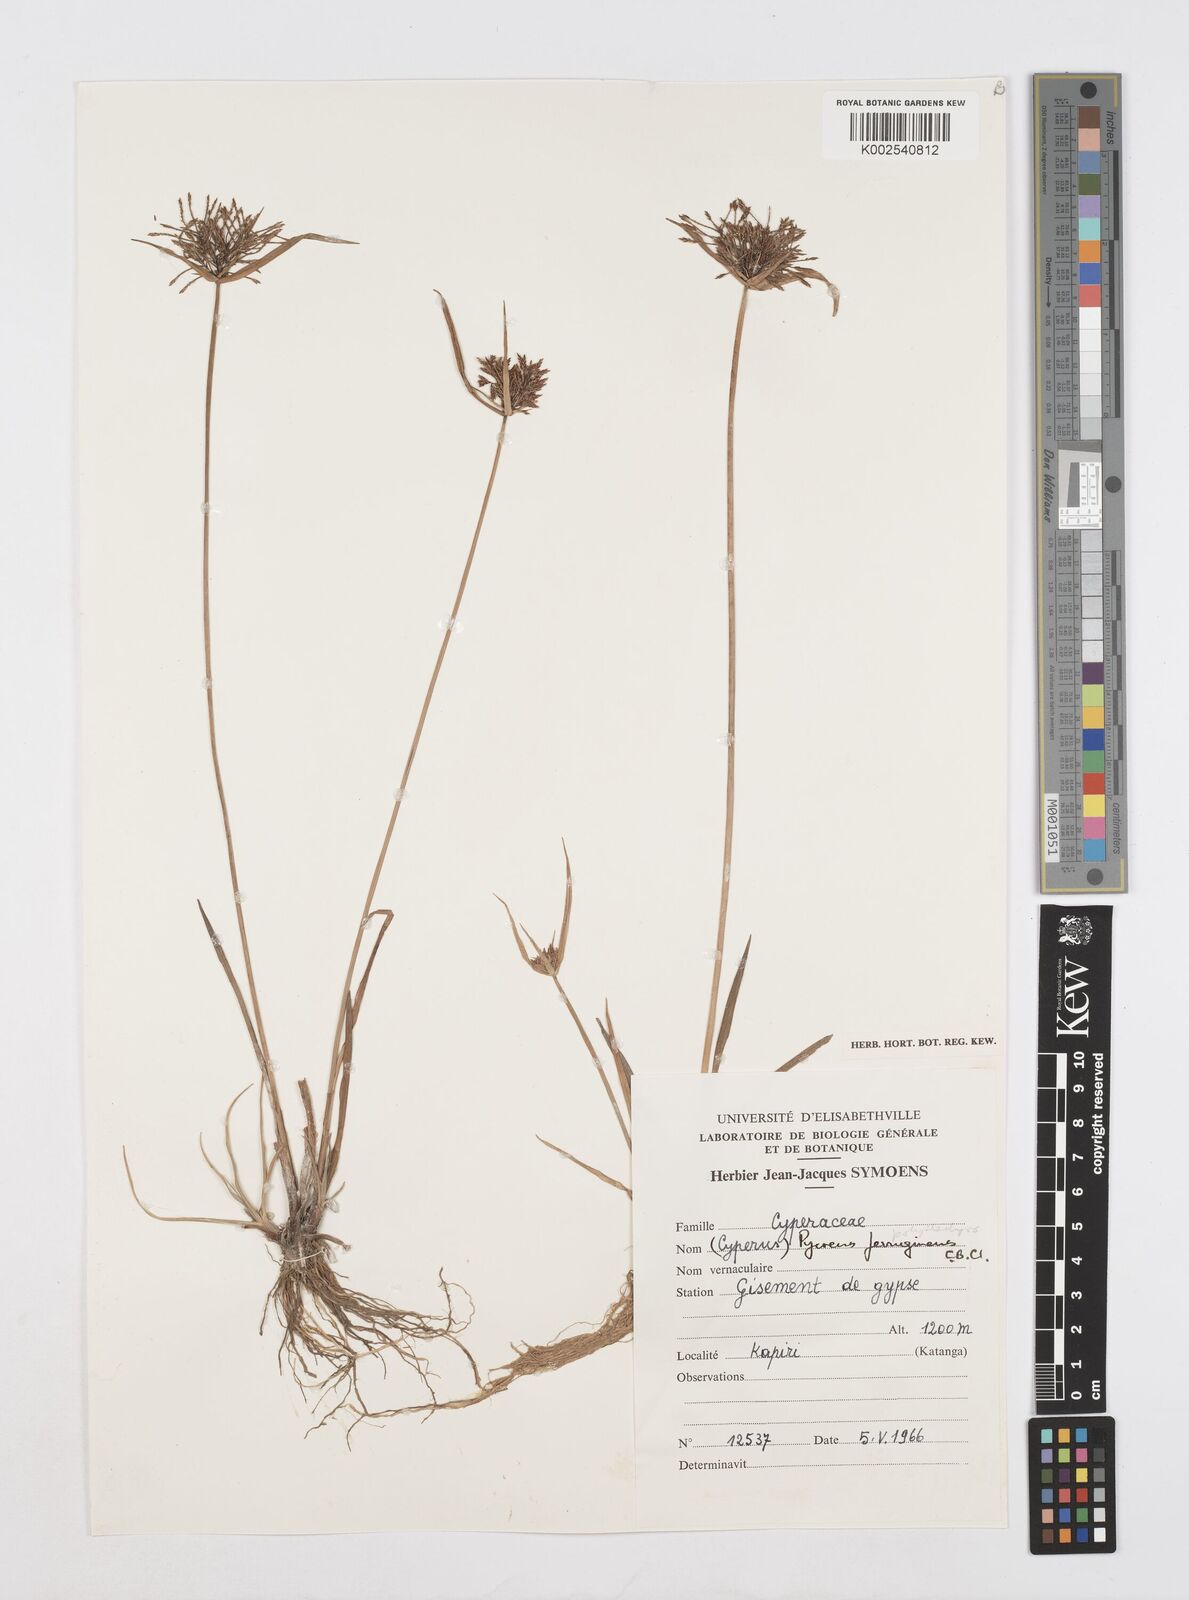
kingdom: Plantae
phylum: Tracheophyta
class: Liliopsida
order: Poales
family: Cyperaceae
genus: Cyperus
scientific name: Cyperus polystachyos
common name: Bunchy flat sedge
